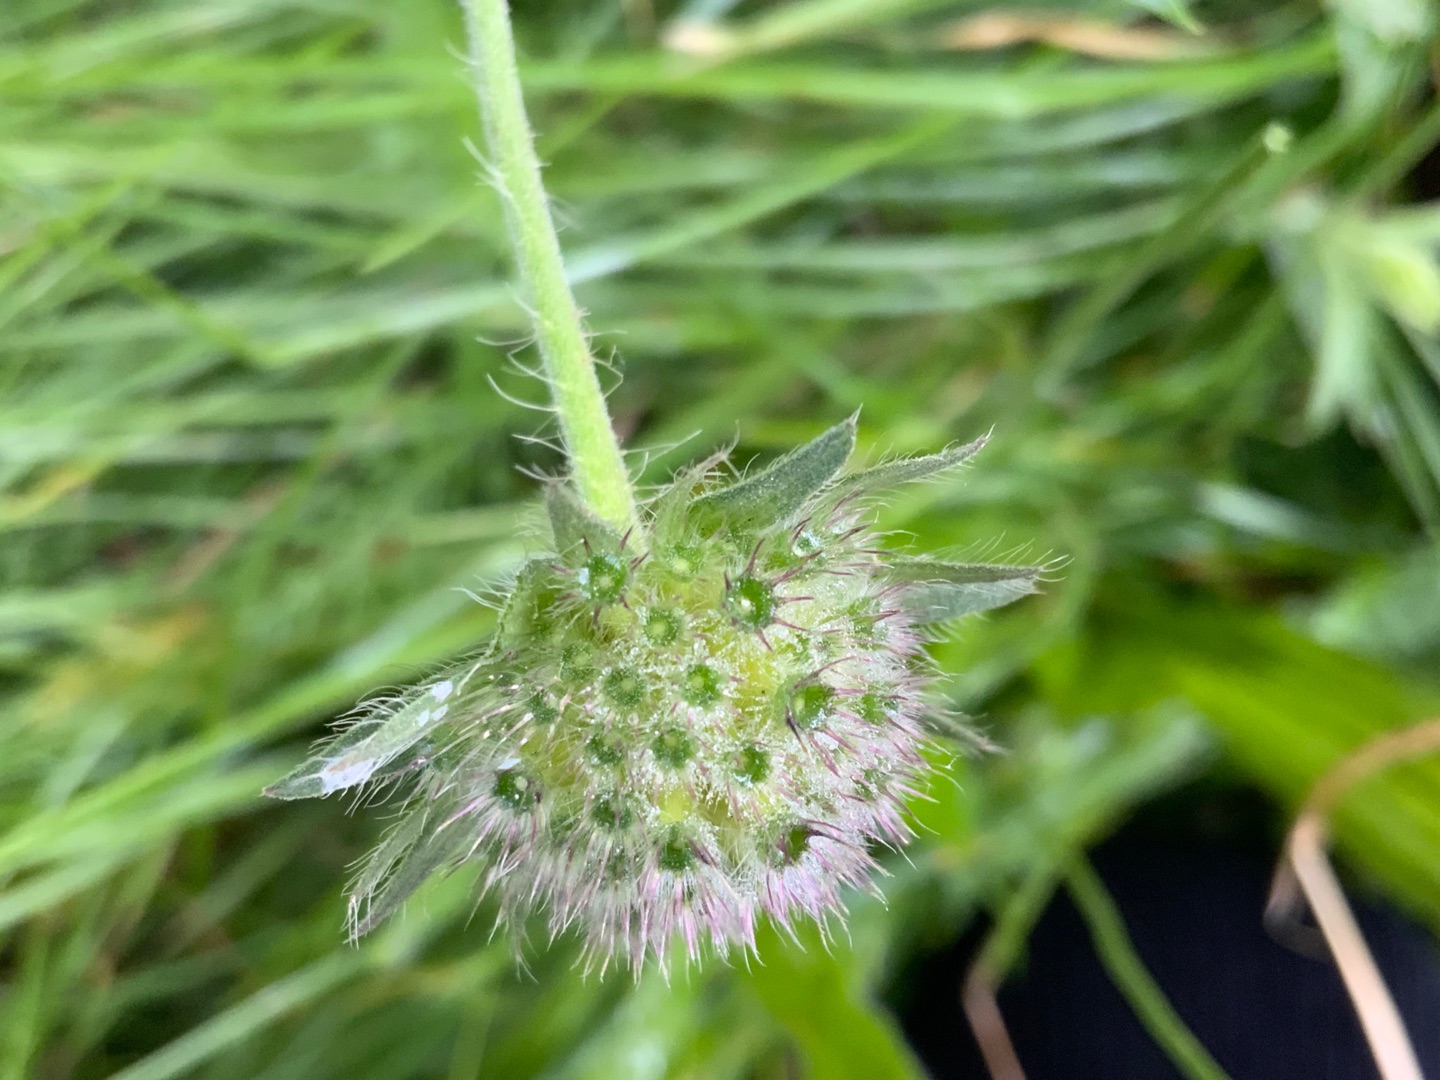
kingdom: Plantae
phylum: Tracheophyta
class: Magnoliopsida
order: Dipsacales
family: Caprifoliaceae
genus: Knautia
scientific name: Knautia arvensis
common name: Blåhat
